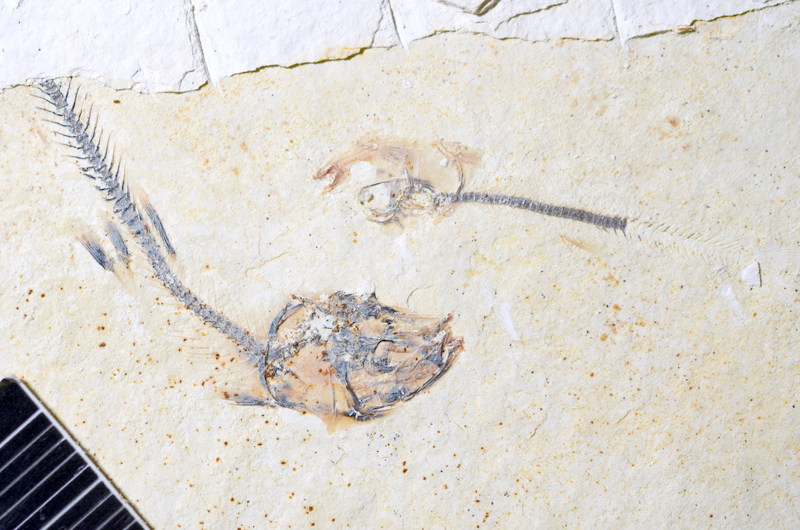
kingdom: Animalia
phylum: Chordata
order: Salmoniformes
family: Orthogonikleithridae
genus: Orthogonikleithrus
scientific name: Orthogonikleithrus hoelli
